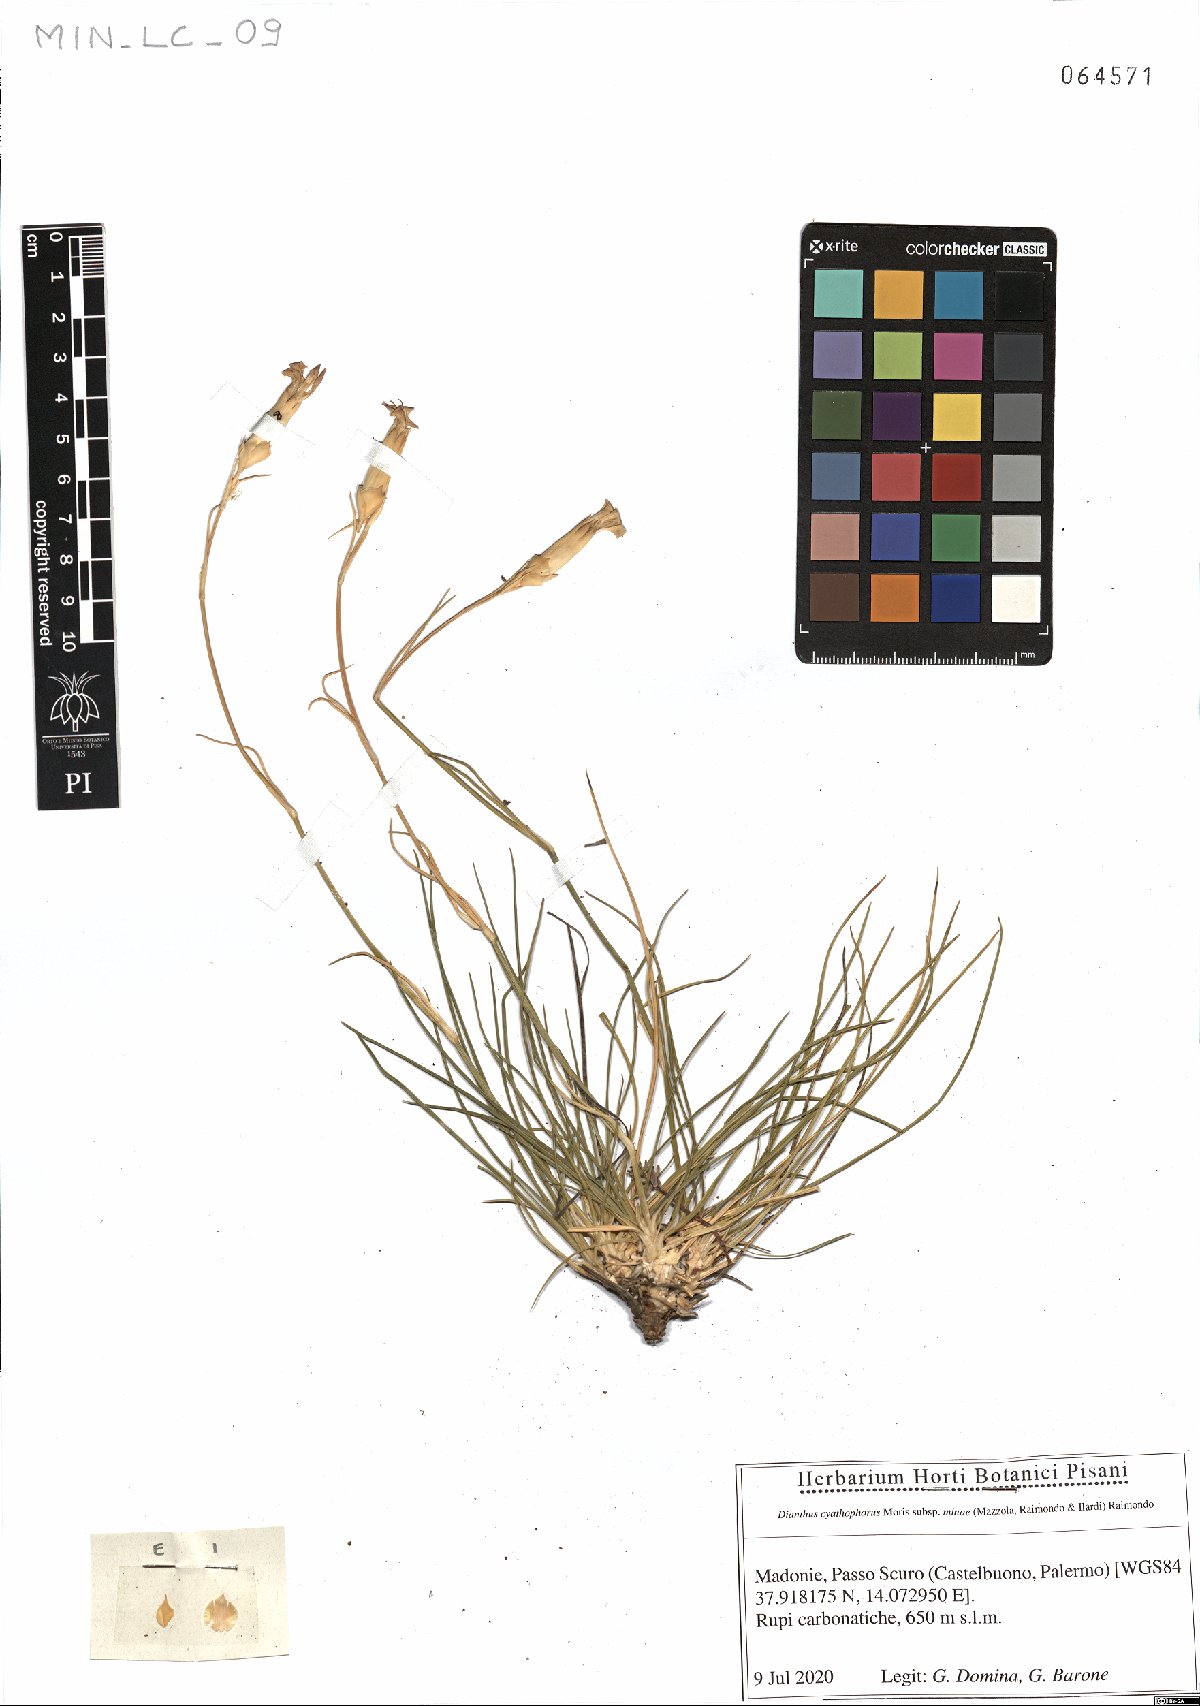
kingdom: Plantae
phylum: Tracheophyta
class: Magnoliopsida
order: Caryophyllales
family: Caryophyllaceae
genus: Dianthus
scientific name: Dianthus siculus
